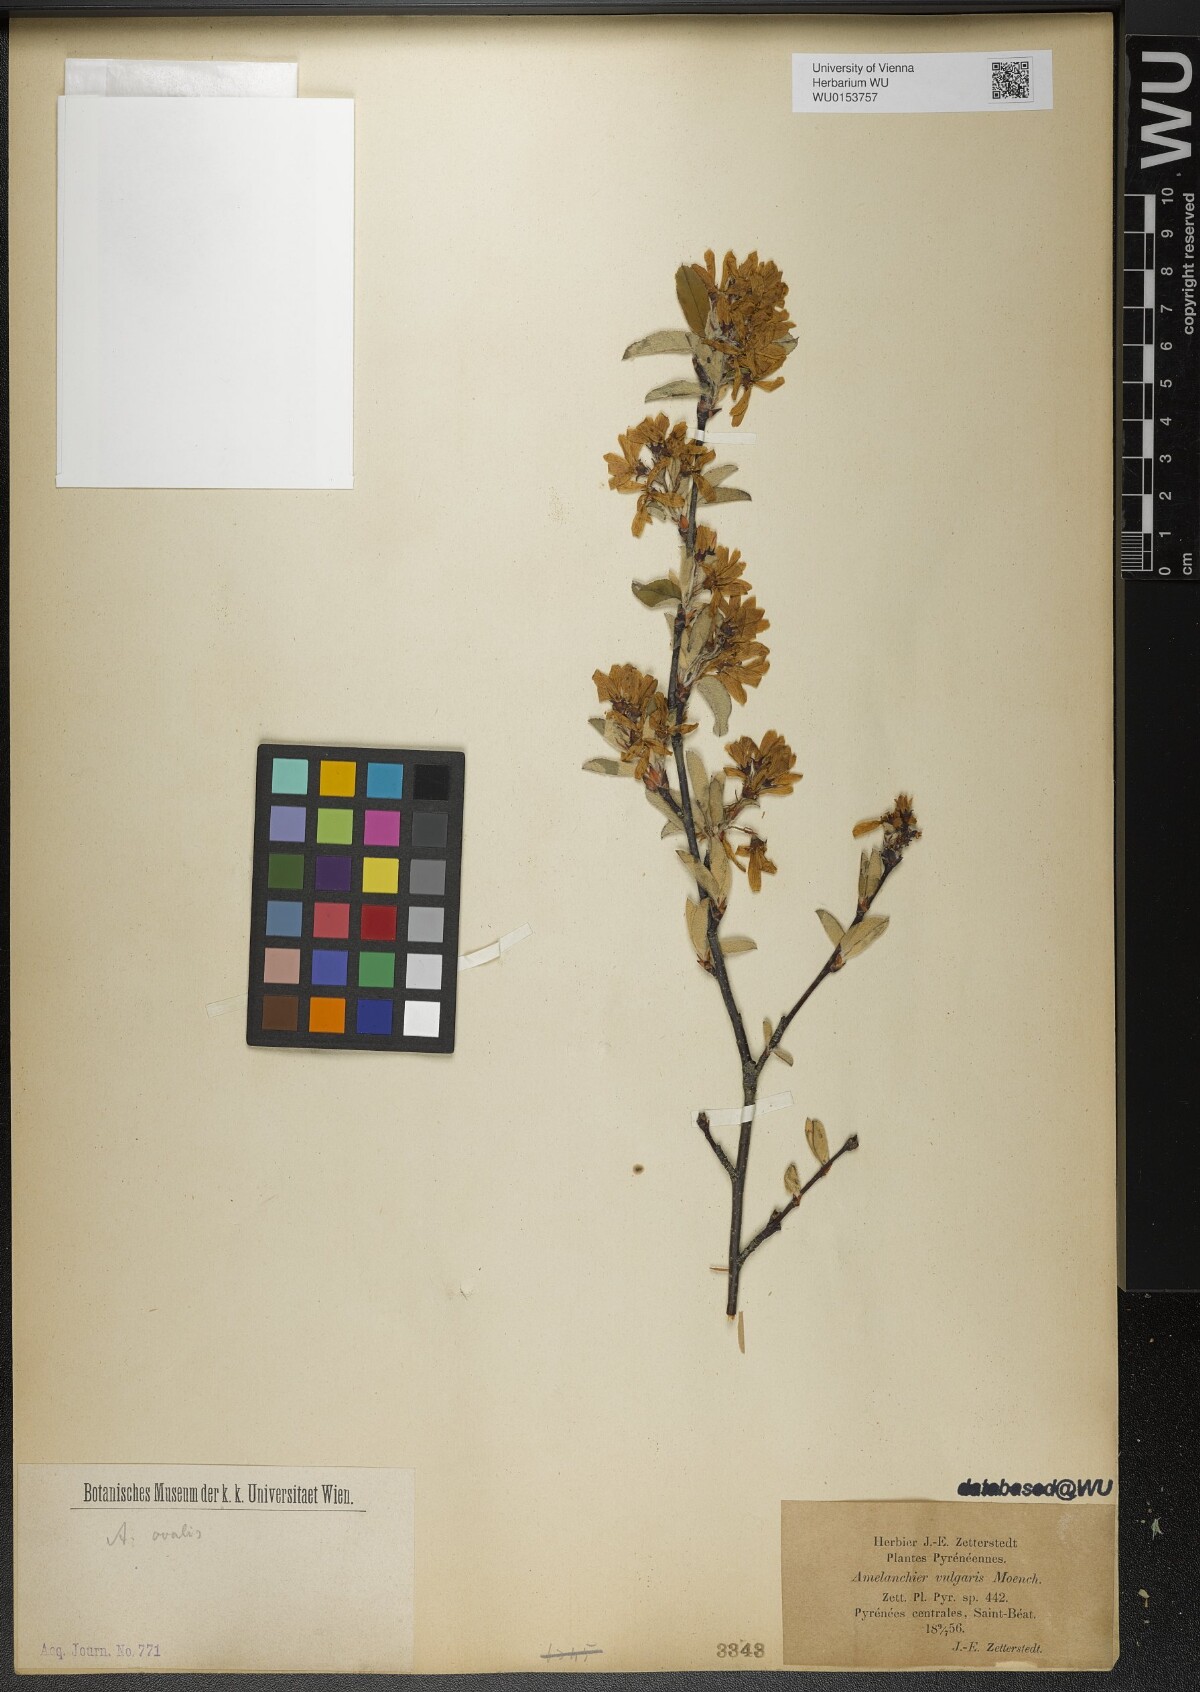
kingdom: Plantae
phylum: Tracheophyta
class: Magnoliopsida
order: Rosales
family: Rosaceae
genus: Amelanchier
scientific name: Amelanchier ovalis
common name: Serviceberry
